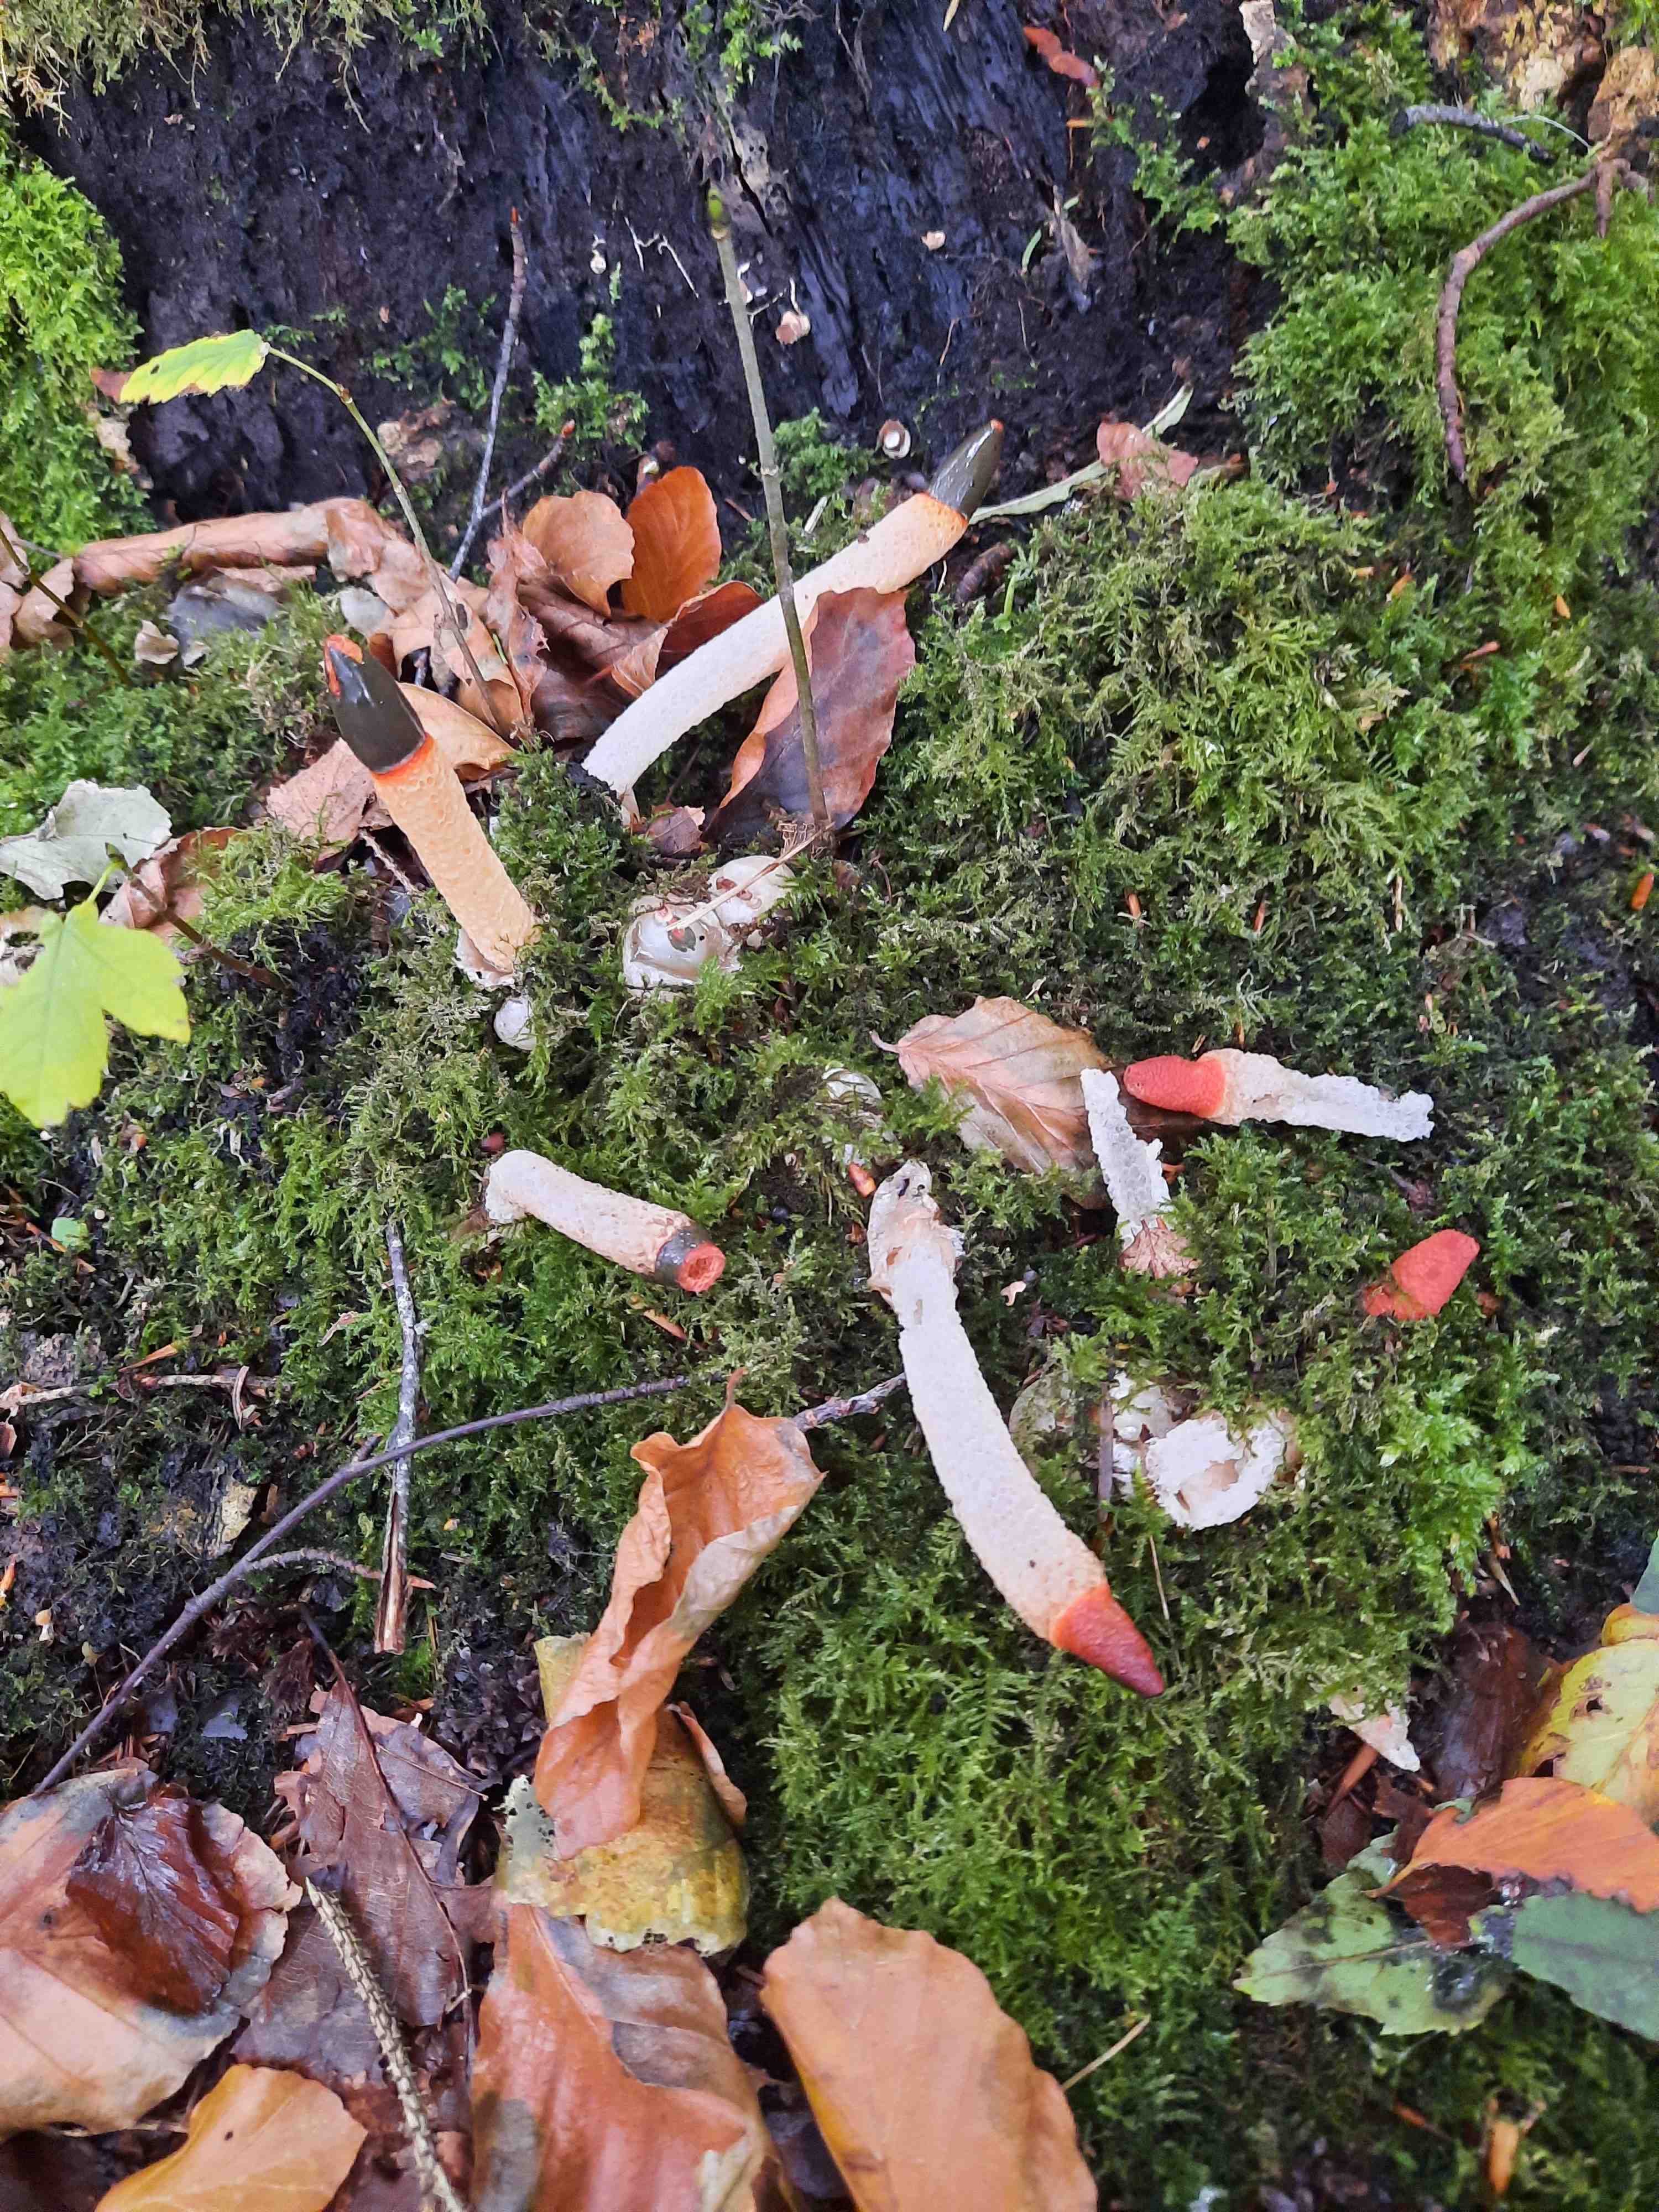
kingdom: Fungi
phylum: Basidiomycota
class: Agaricomycetes
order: Phallales
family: Phallaceae
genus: Mutinus
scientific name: Mutinus caninus
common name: hunde-stinksvamp
